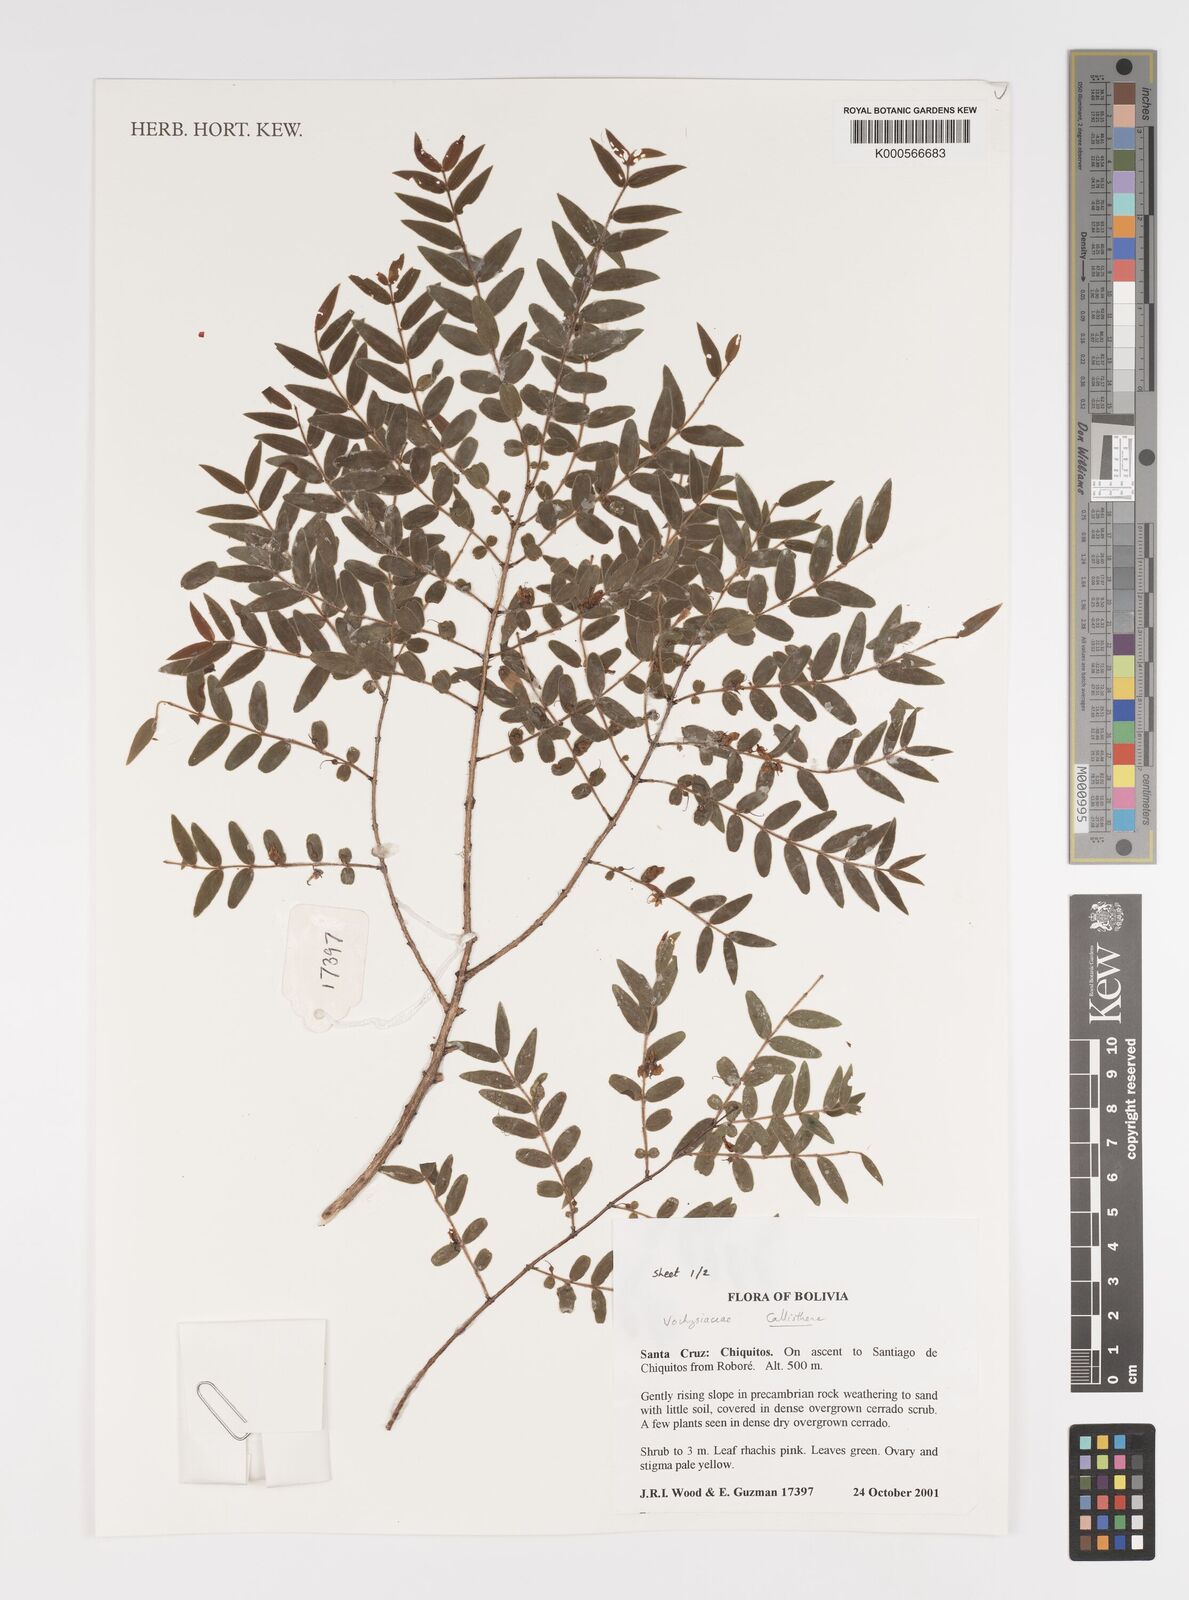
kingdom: Plantae
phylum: Tracheophyta
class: Magnoliopsida
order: Myrtales
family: Vochysiaceae
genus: Callisthene
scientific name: Callisthene minor
